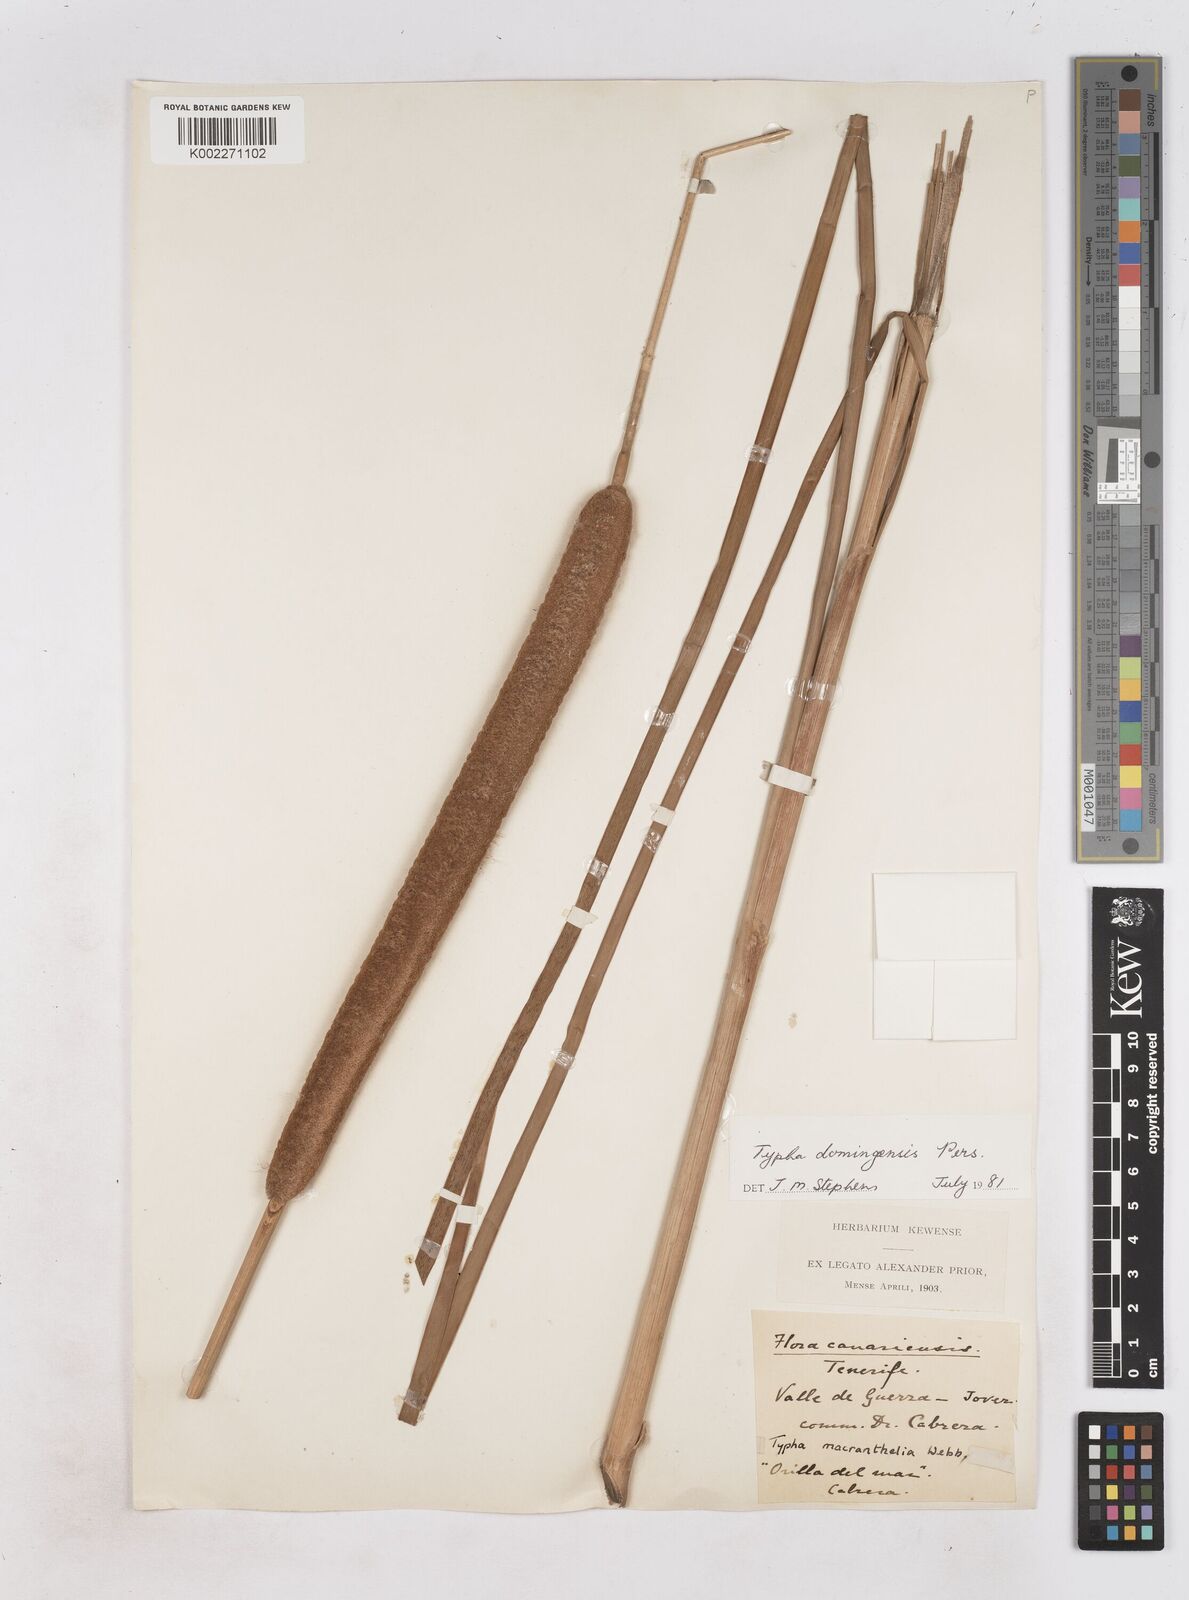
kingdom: Plantae
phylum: Tracheophyta
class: Liliopsida
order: Poales
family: Typhaceae
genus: Typha
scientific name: Typha domingensis
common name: Southern cattail
